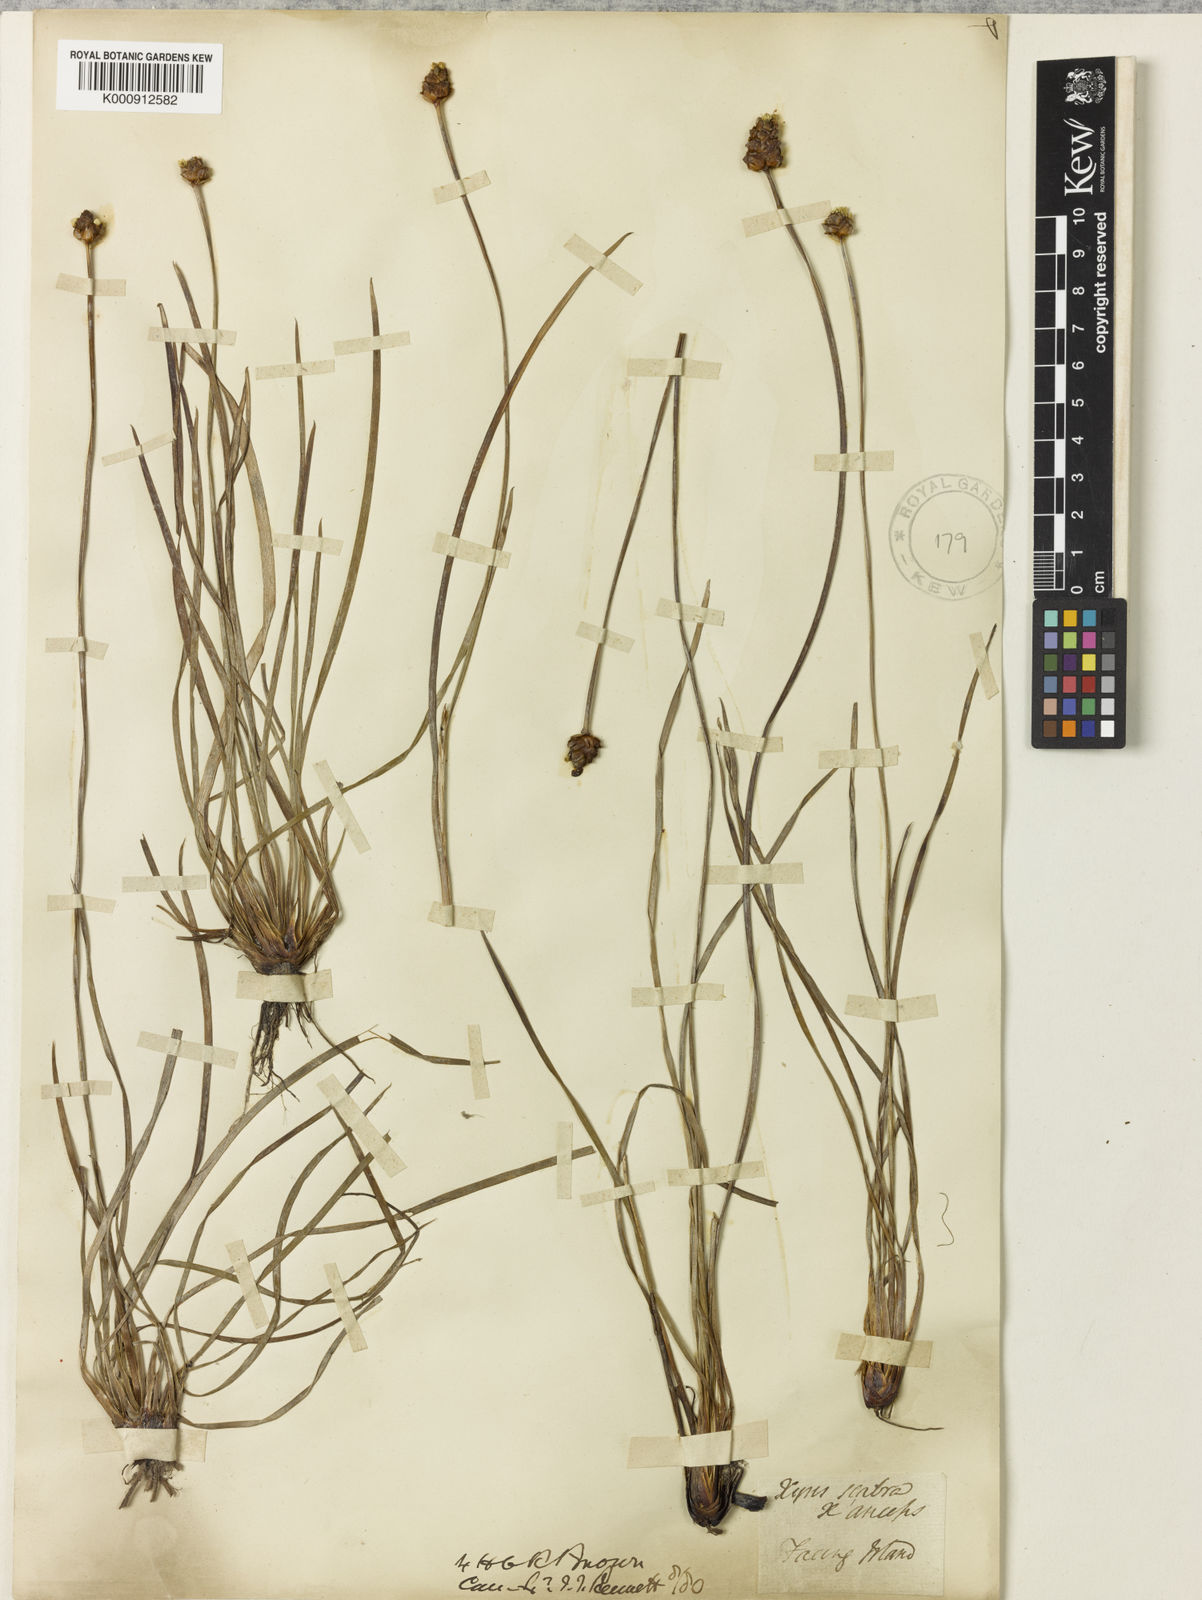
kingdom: Plantae
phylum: Tracheophyta
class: Liliopsida
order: Poales
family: Xyridaceae
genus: Xyris
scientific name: Xyris complanata
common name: Hawai'i yelloweyed grass
